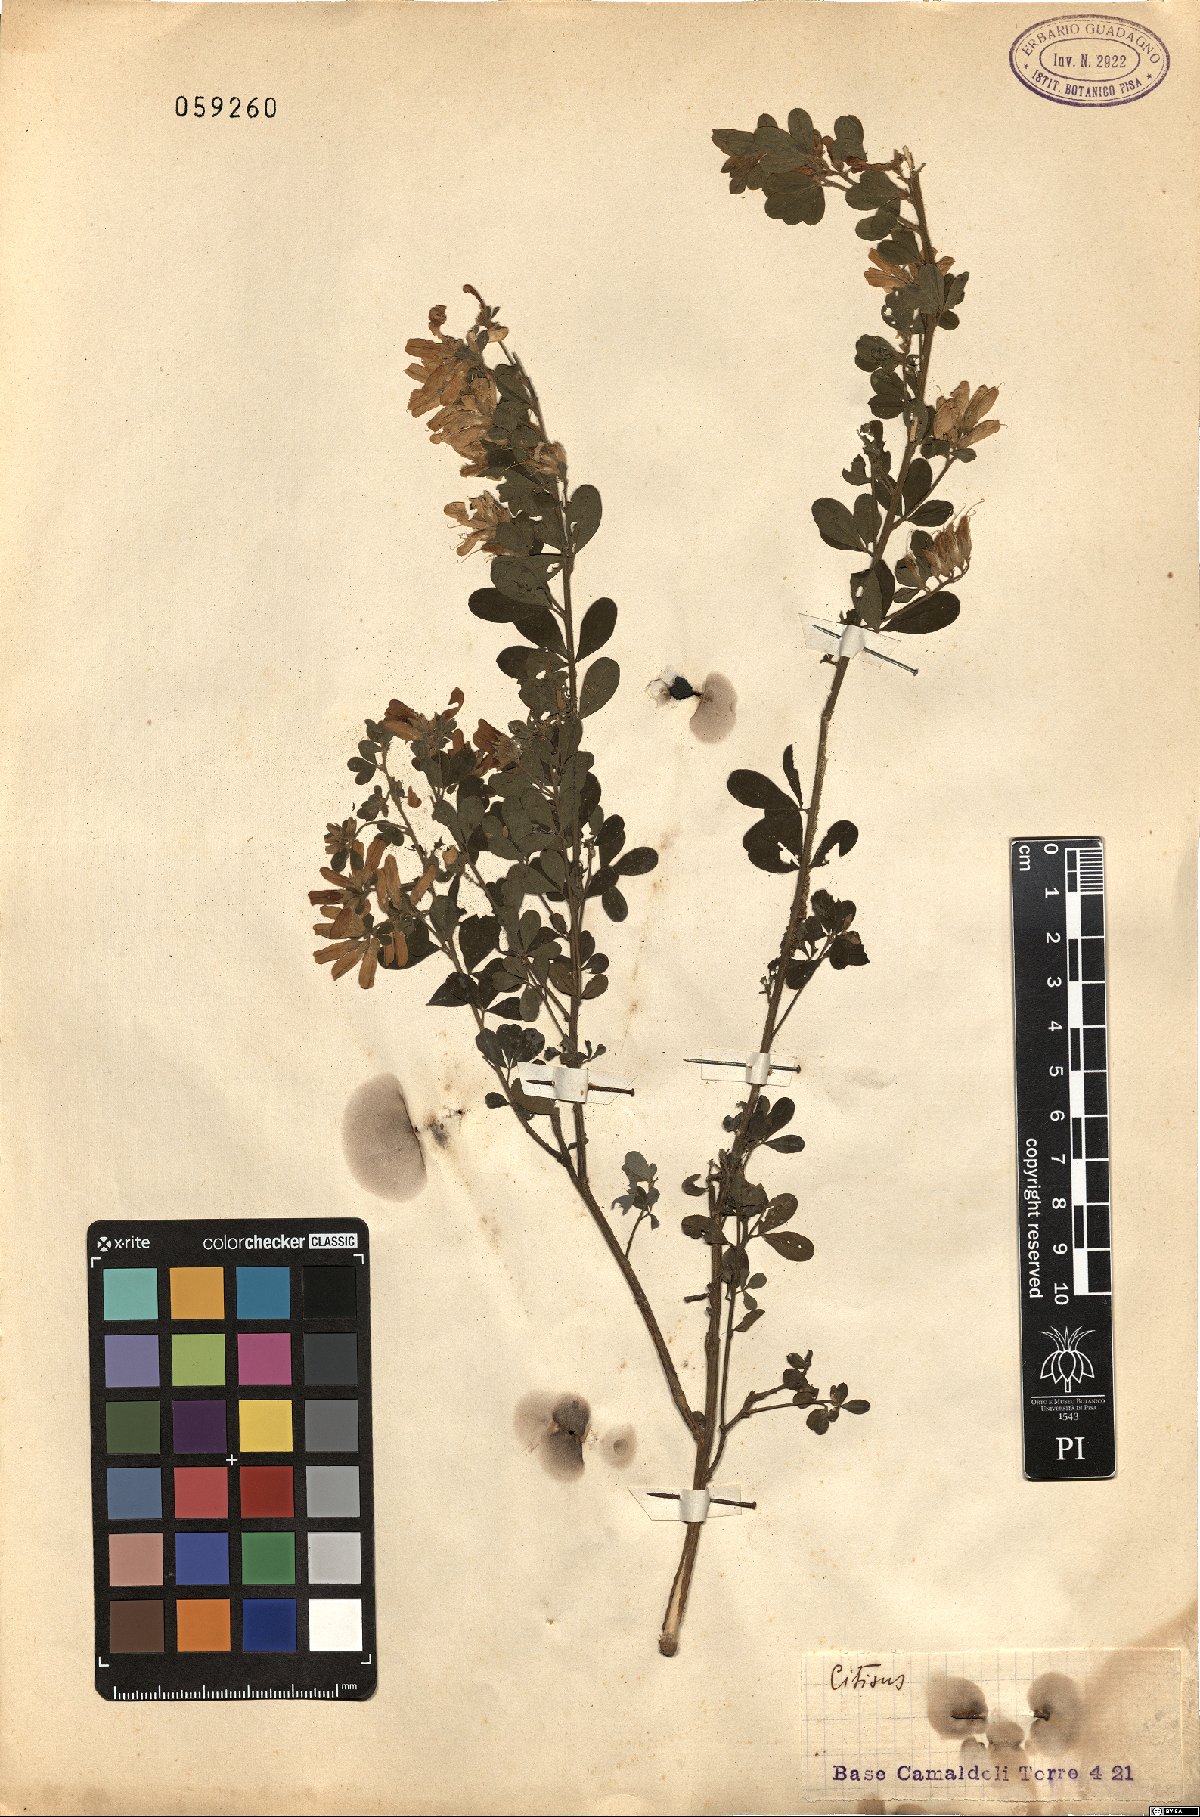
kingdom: Plantae
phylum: Tracheophyta
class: Magnoliopsida
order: Fabales
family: Fabaceae
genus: Cytisus
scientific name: Cytisus
